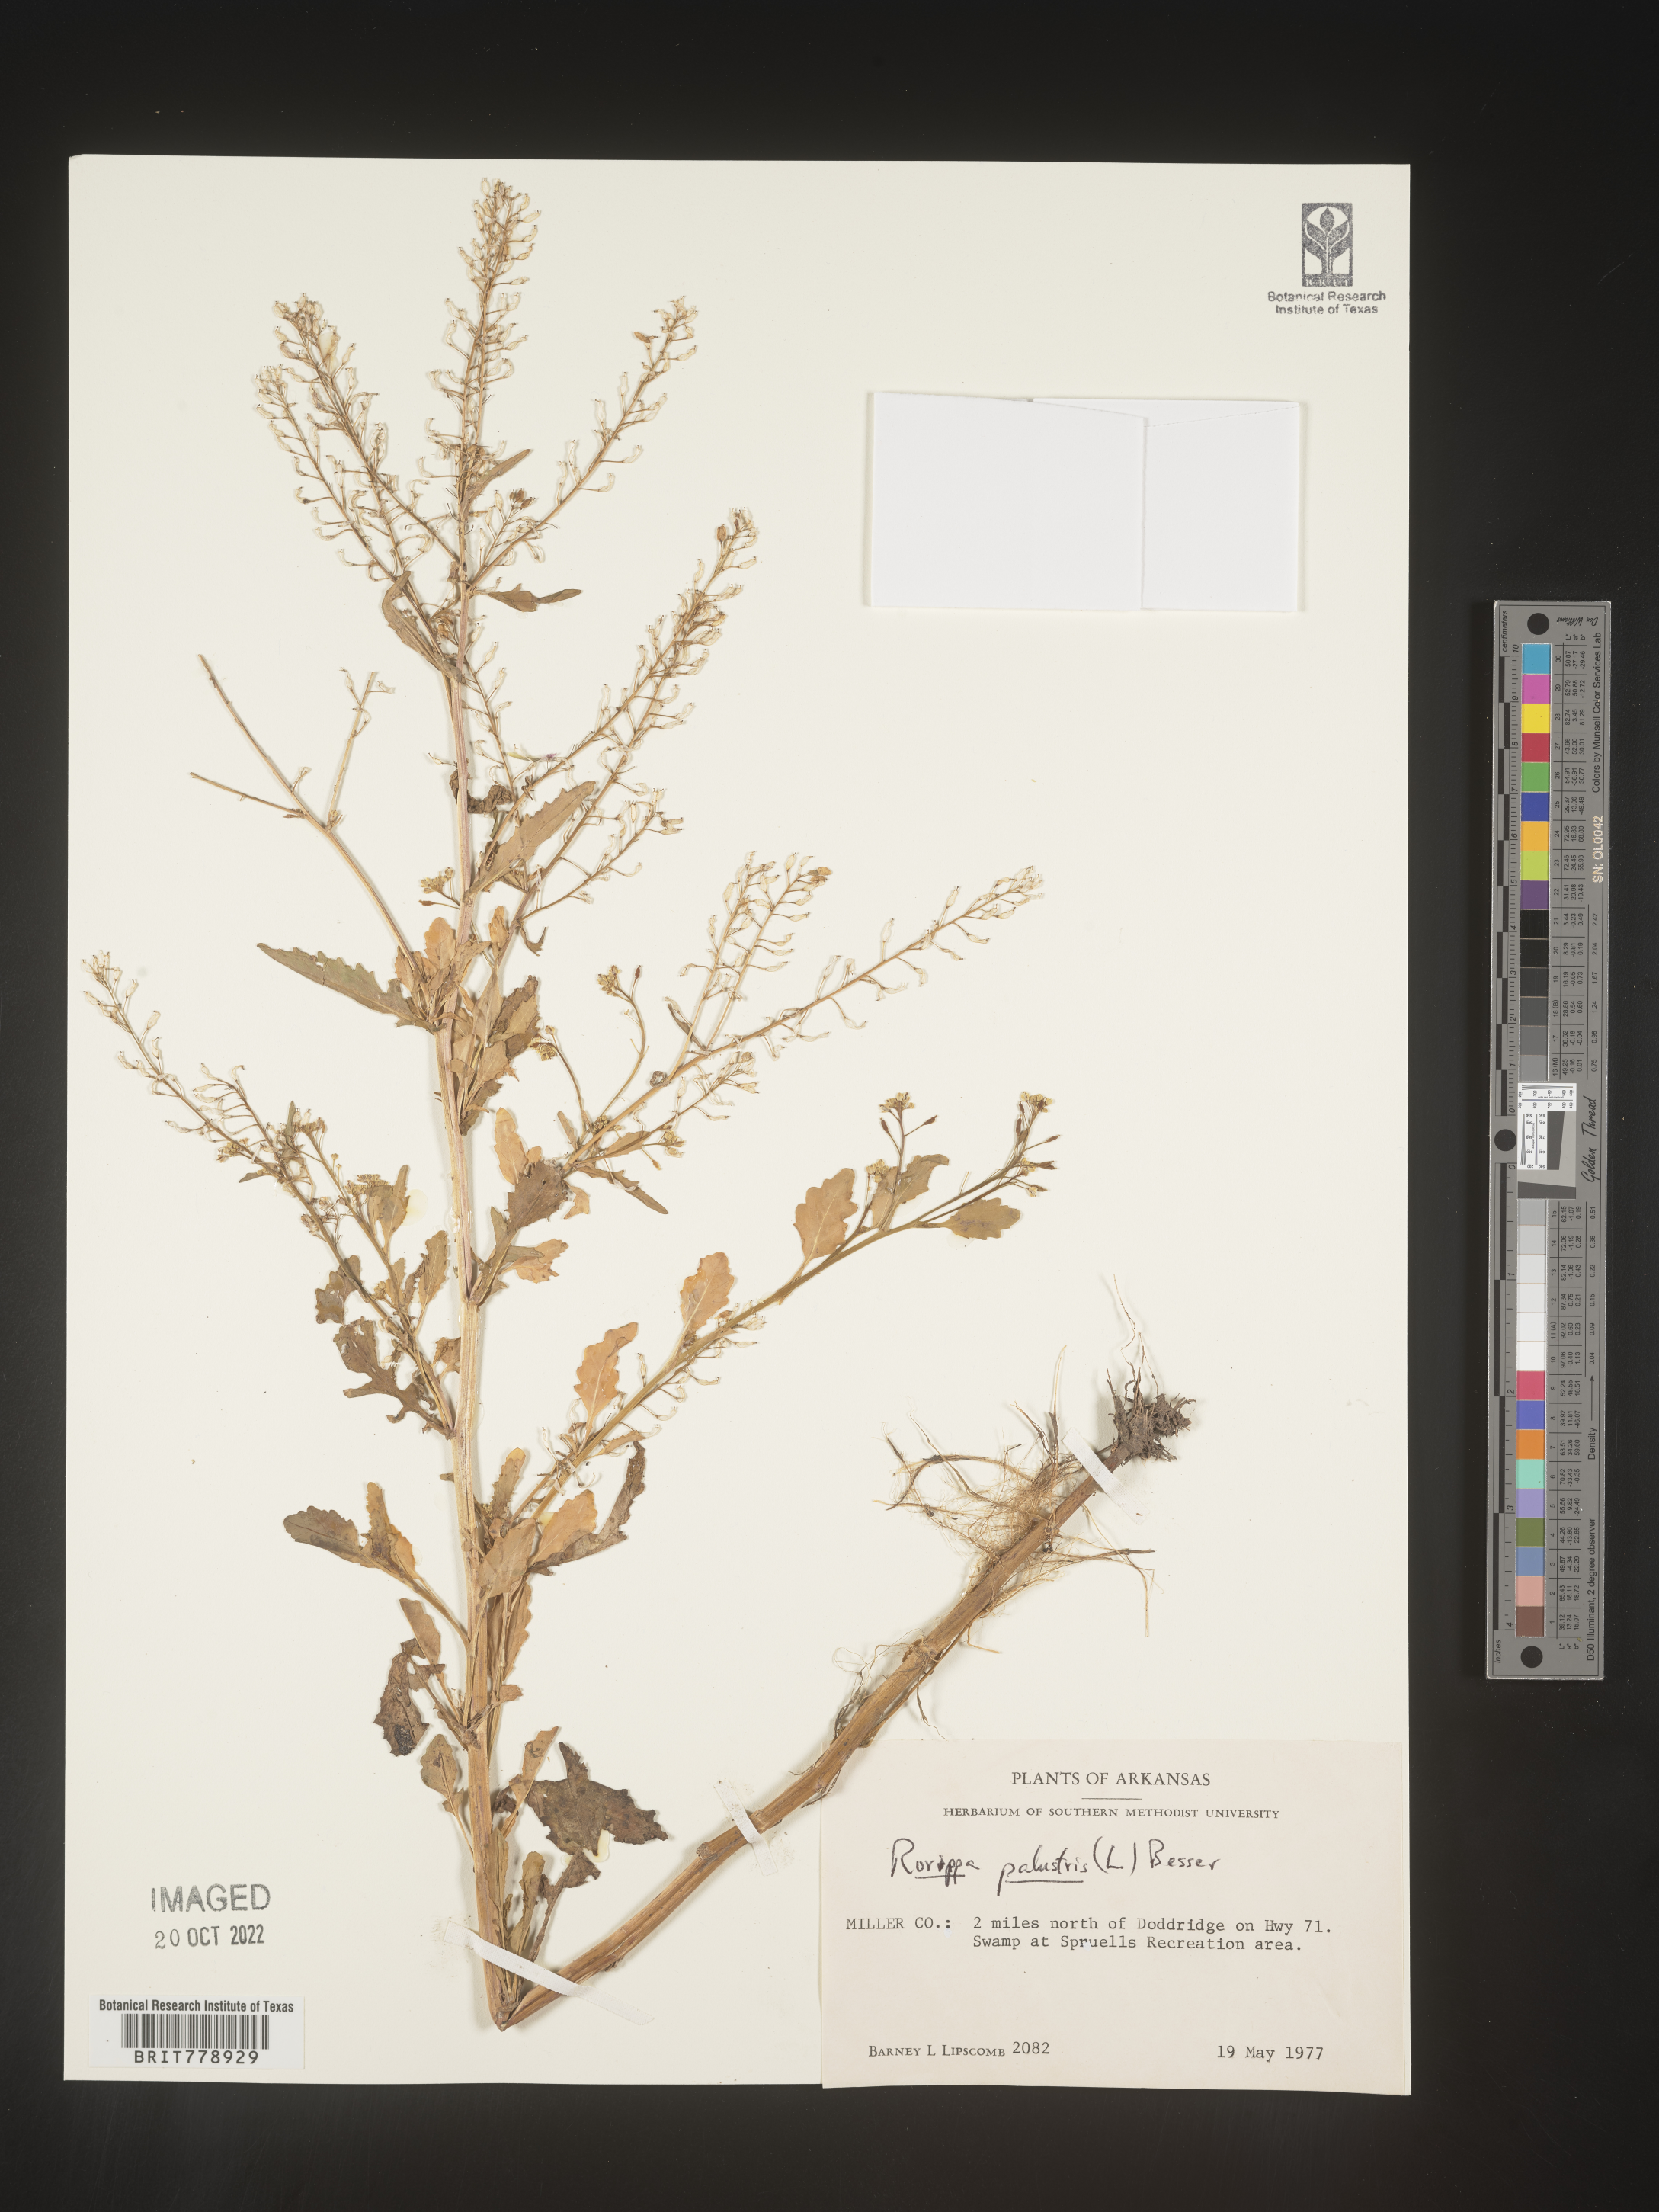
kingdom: Plantae
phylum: Tracheophyta
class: Magnoliopsida
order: Brassicales
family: Brassicaceae
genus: Rorippa
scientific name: Rorippa palustris
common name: Marsh yellow-cress
